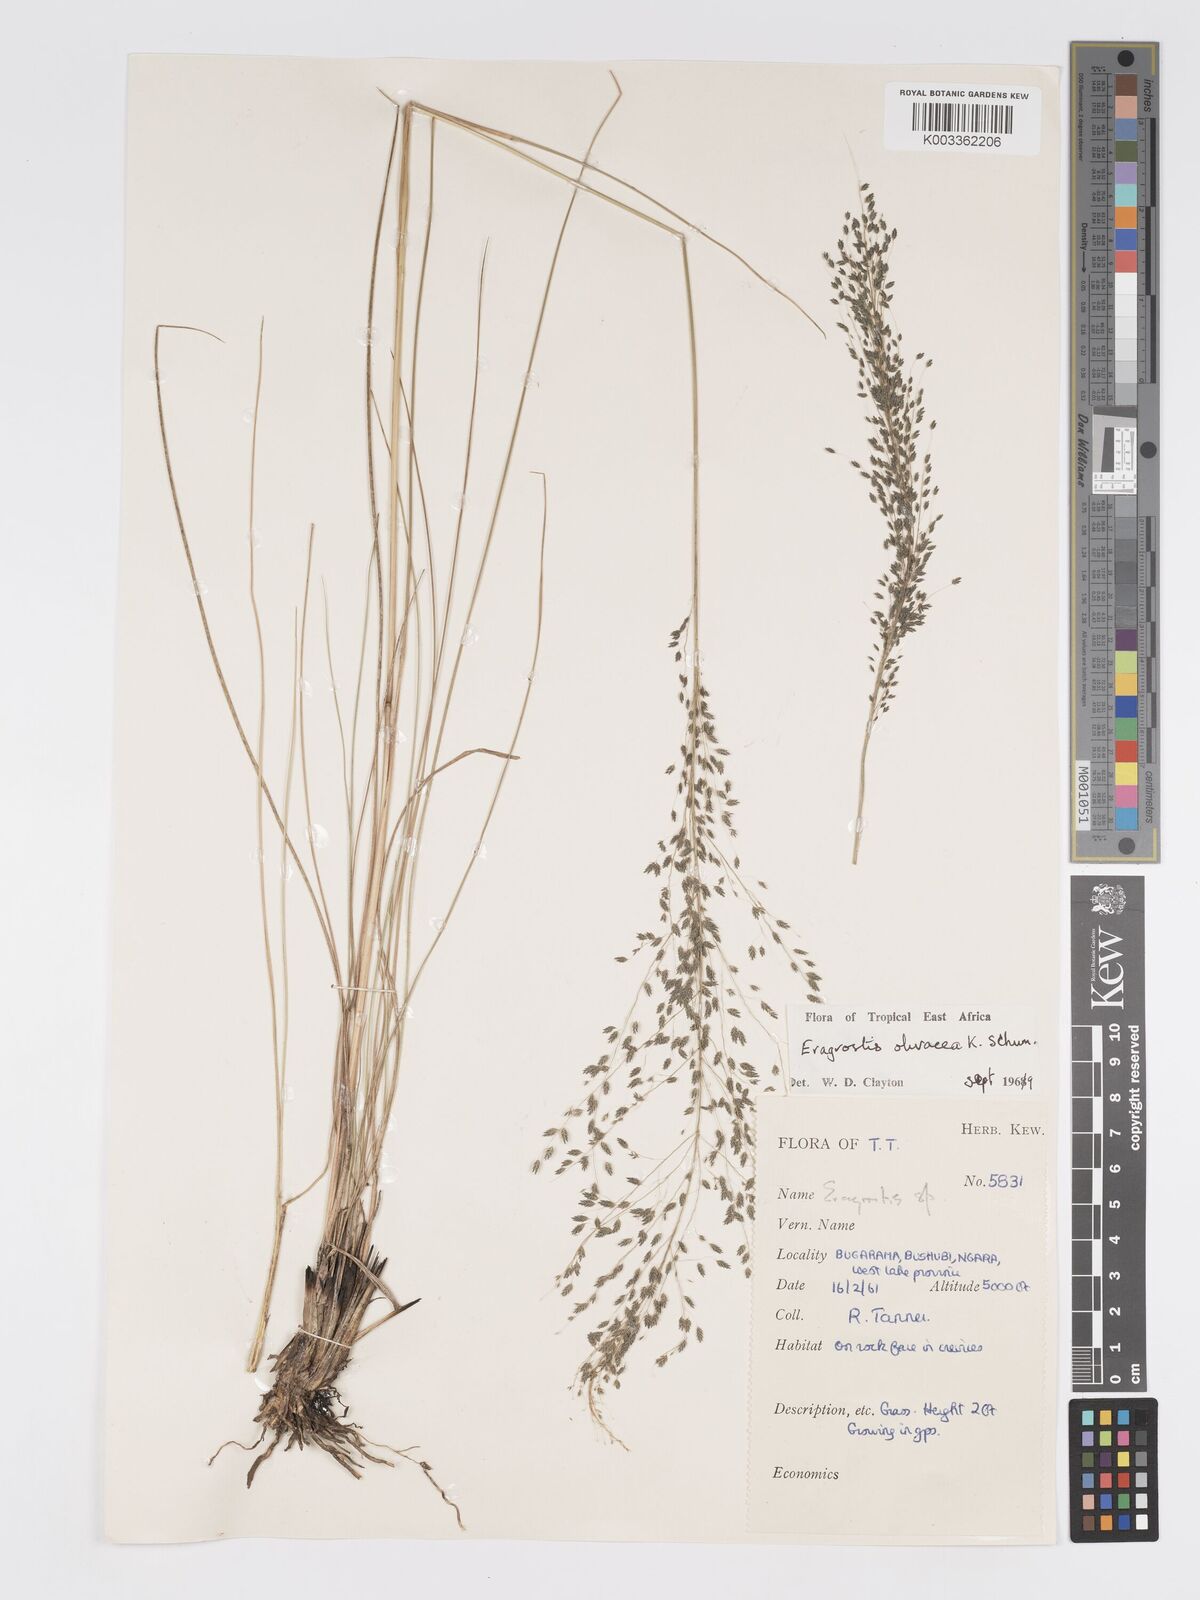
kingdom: Plantae
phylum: Tracheophyta
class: Liliopsida
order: Poales
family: Poaceae
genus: Eragrostis
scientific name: Eragrostis olivacea
